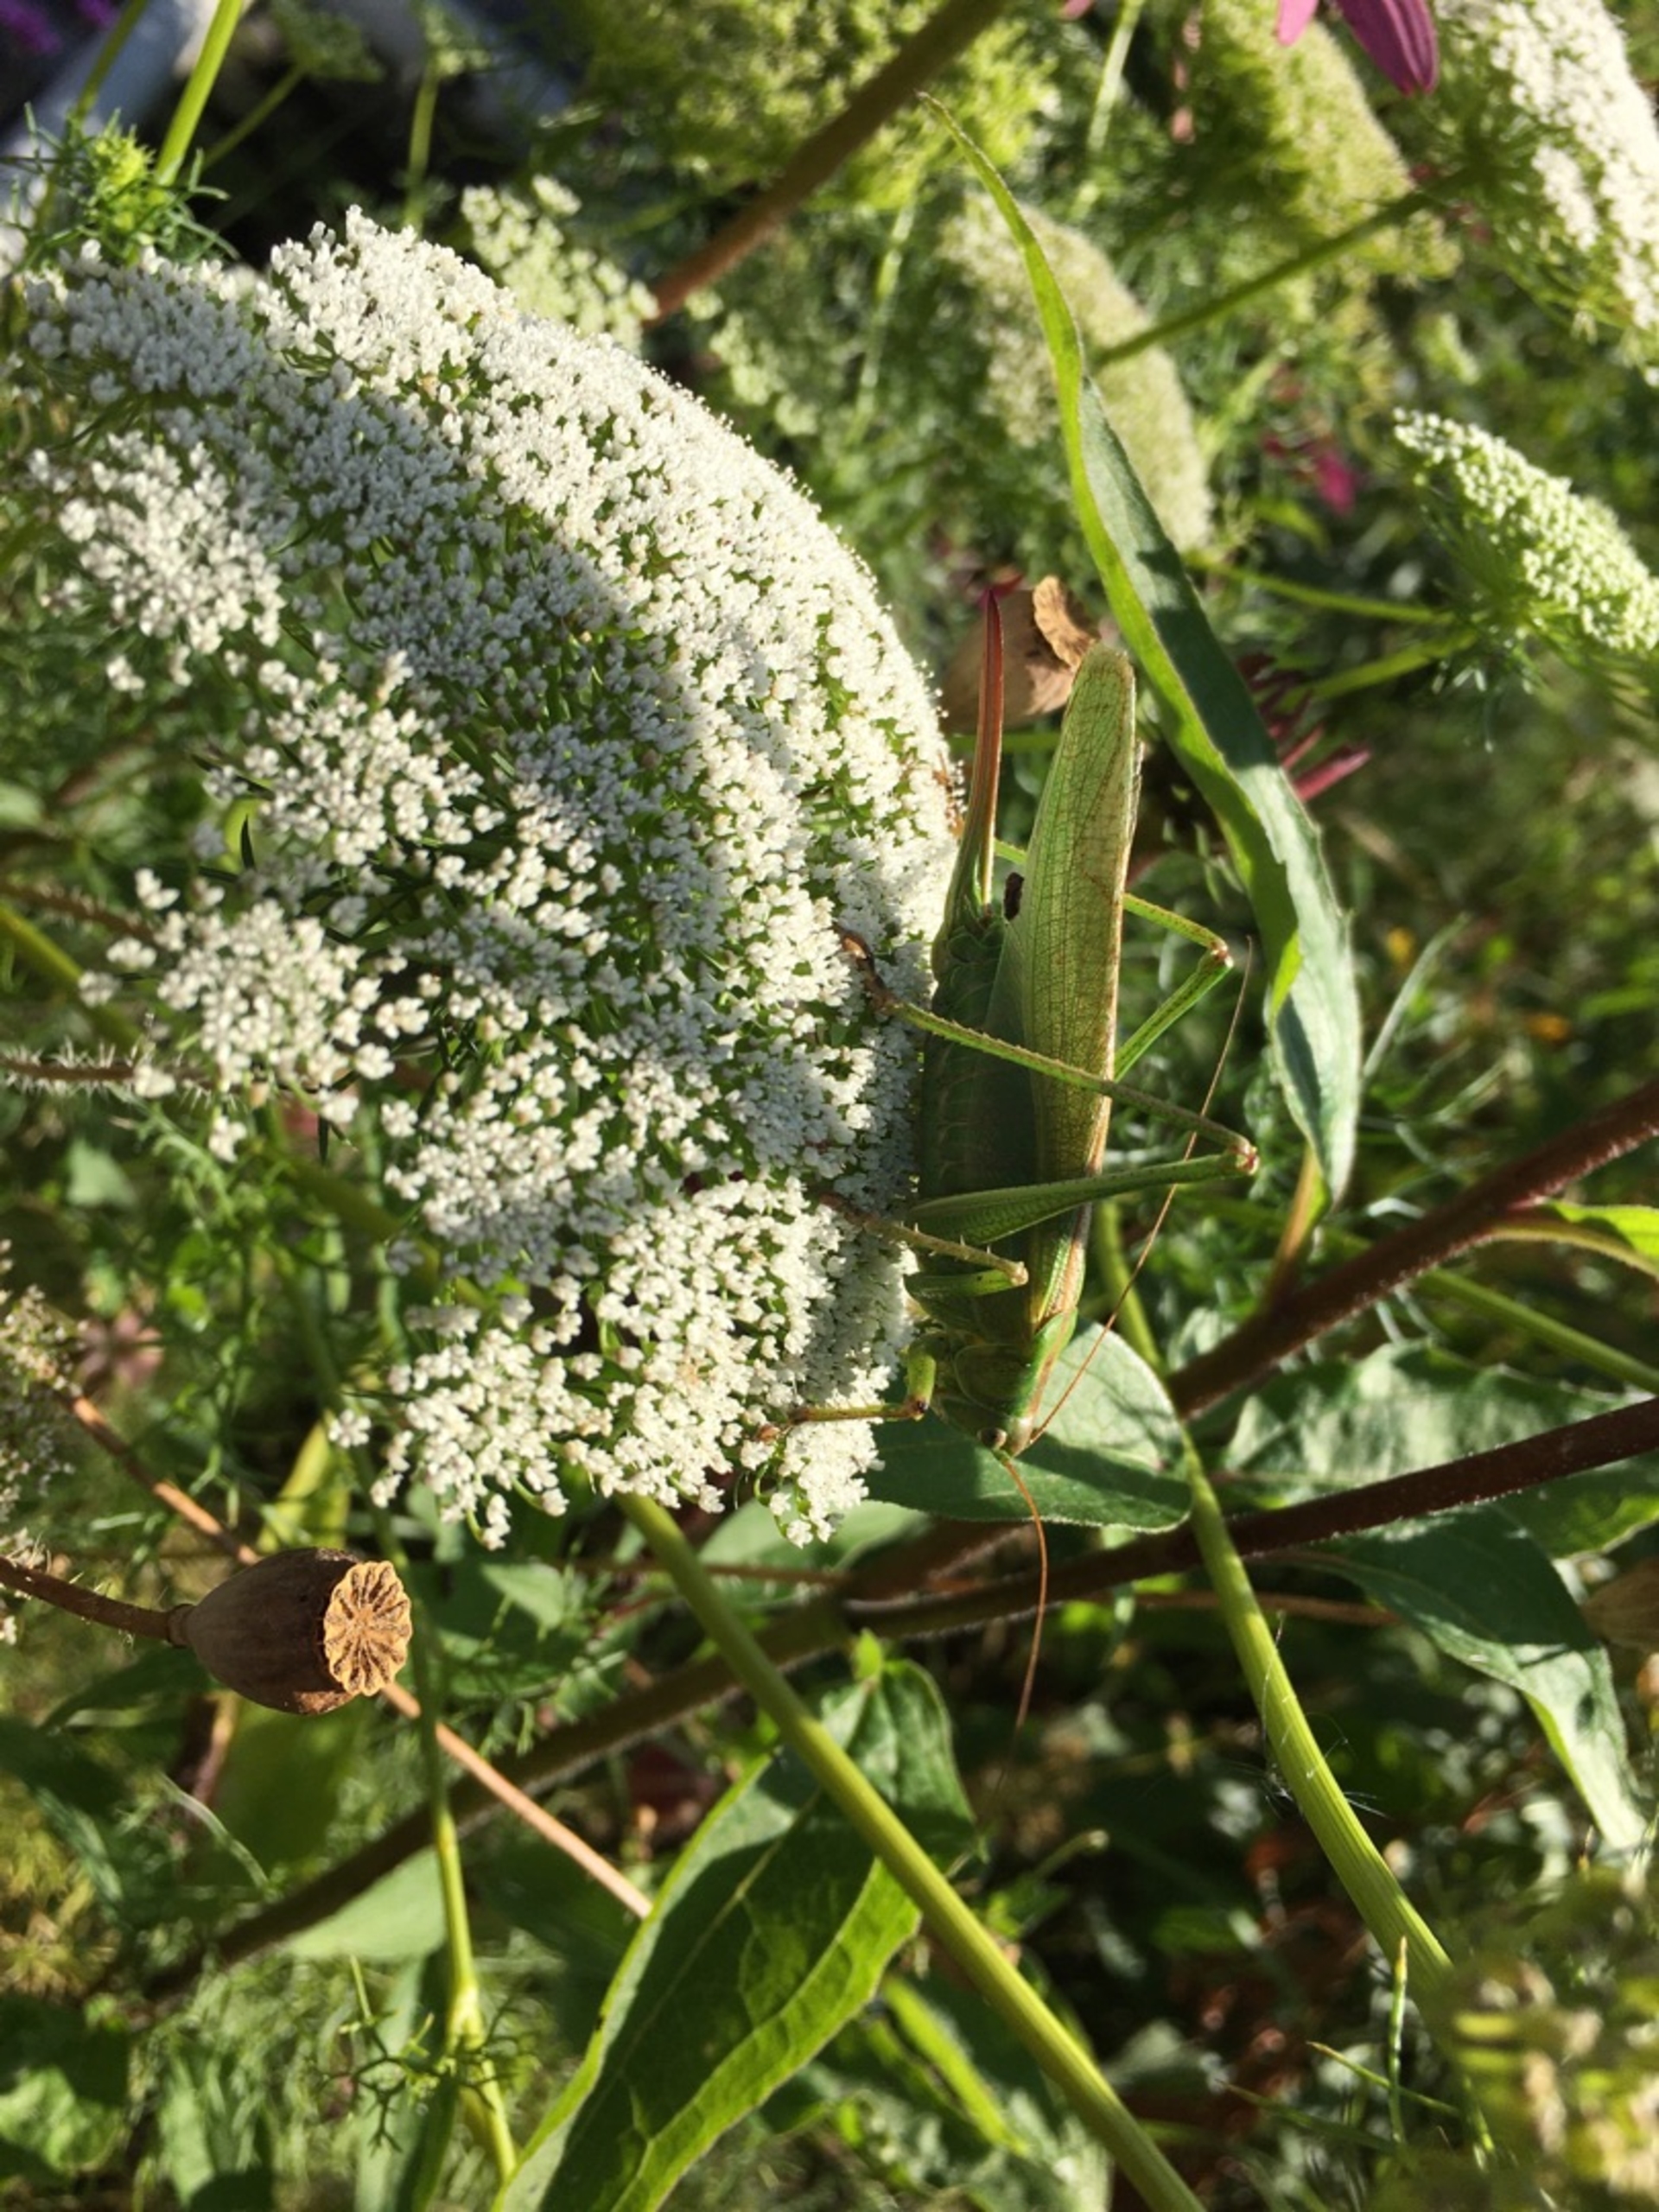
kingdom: Animalia
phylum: Arthropoda
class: Insecta
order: Orthoptera
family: Tettigoniidae
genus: Tettigonia
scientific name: Tettigonia viridissima
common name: Stor grøn løvgræshoppe
